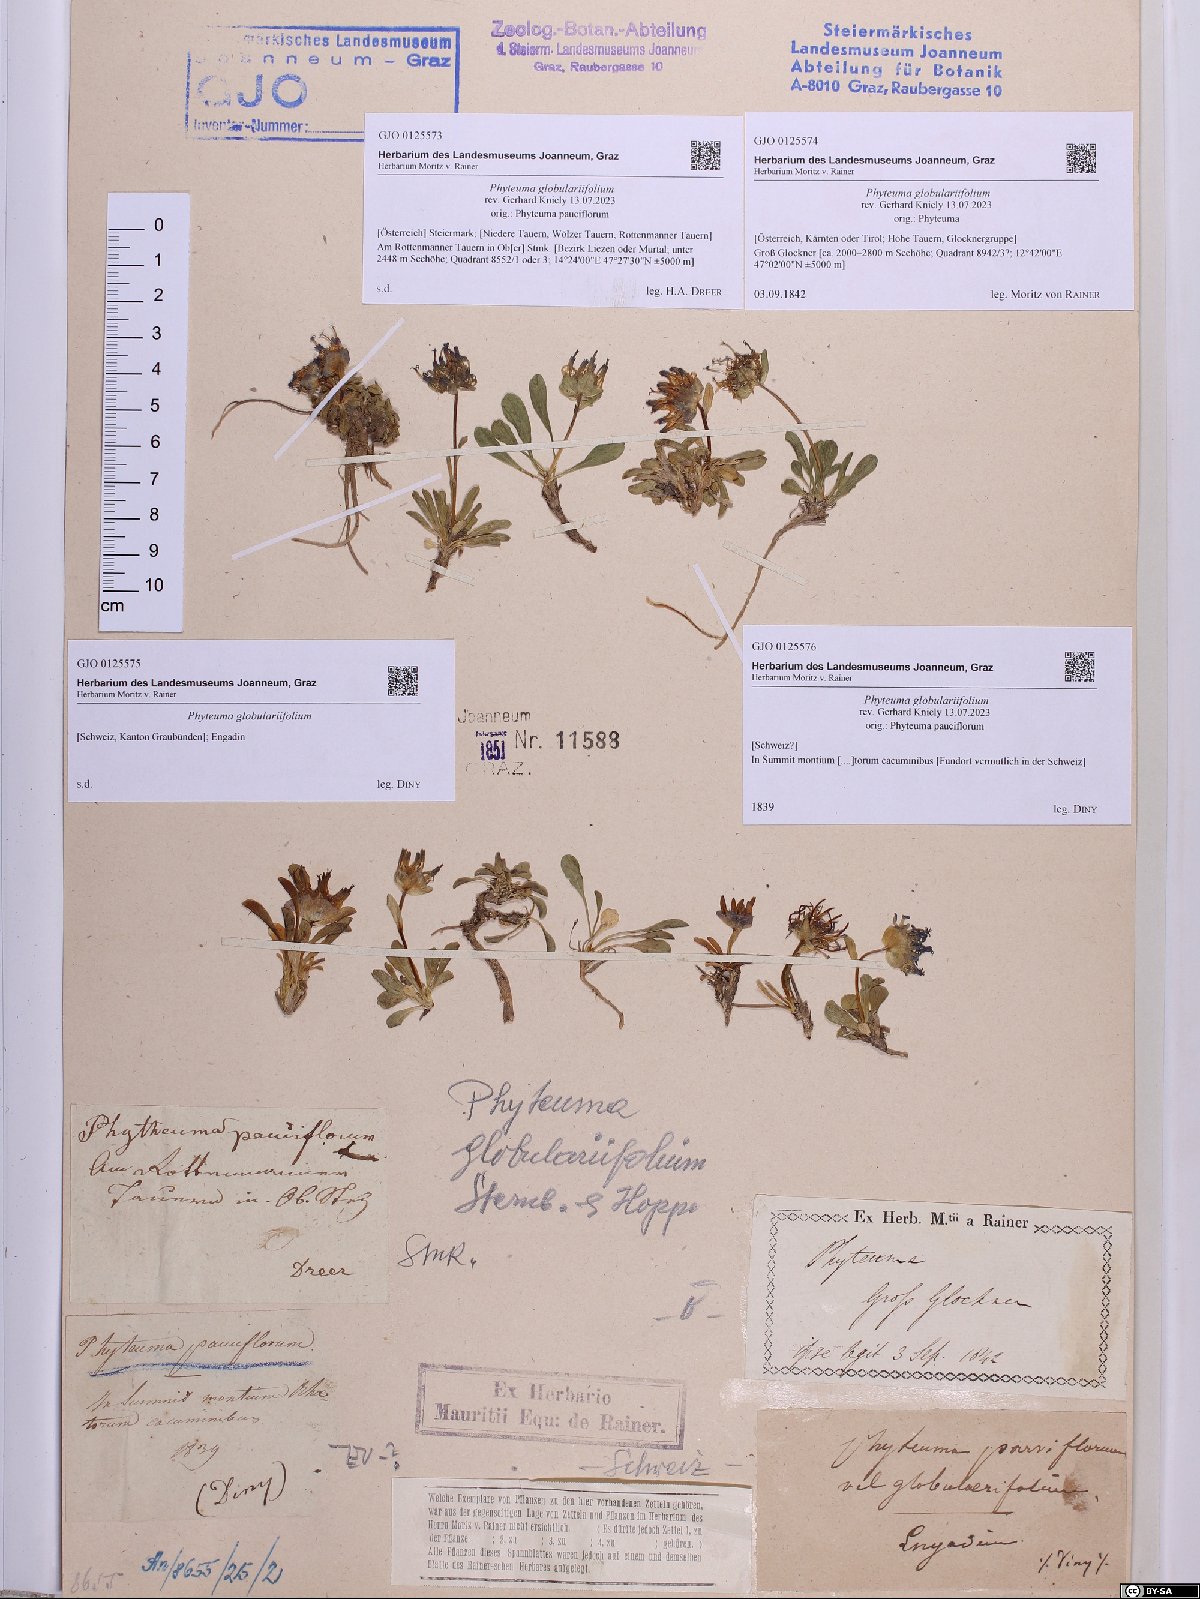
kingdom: Plantae
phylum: Tracheophyta
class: Magnoliopsida
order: Asterales
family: Campanulaceae
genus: Phyteuma
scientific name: Phyteuma globulariifolium
